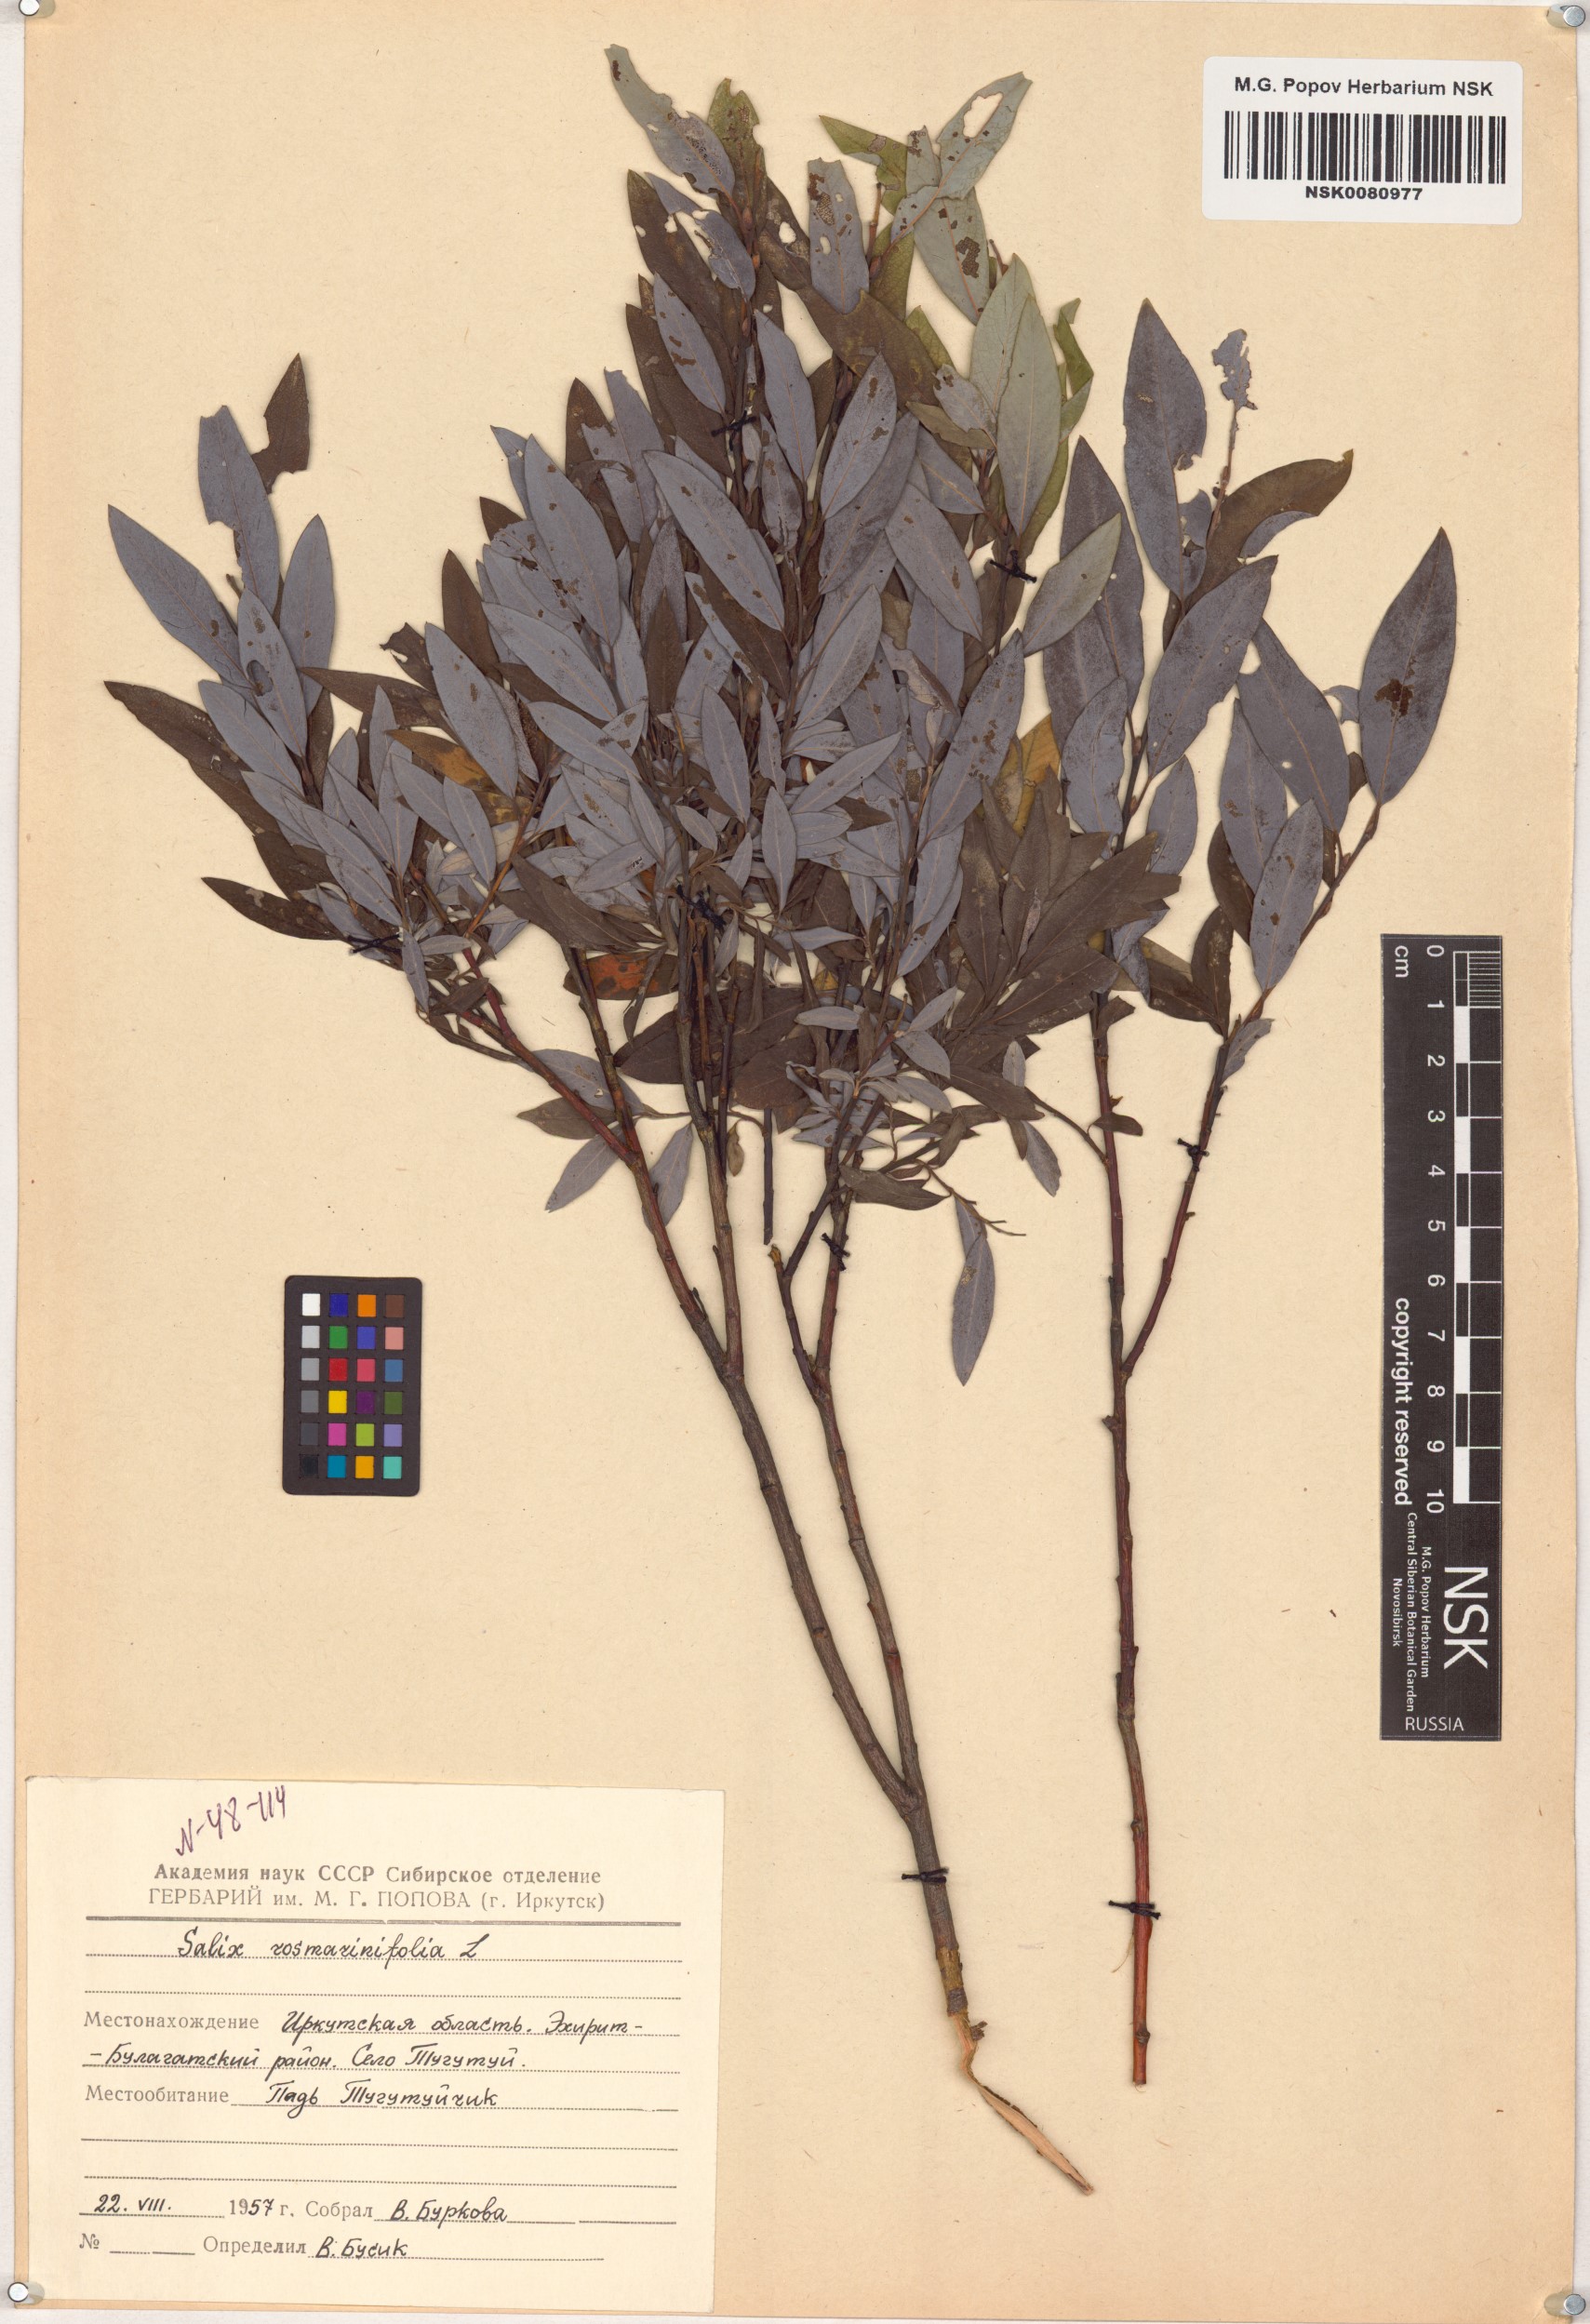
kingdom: Plantae
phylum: Tracheophyta
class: Magnoliopsida
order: Malpighiales
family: Salicaceae
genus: Salix
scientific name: Salix rosmarinifolia
